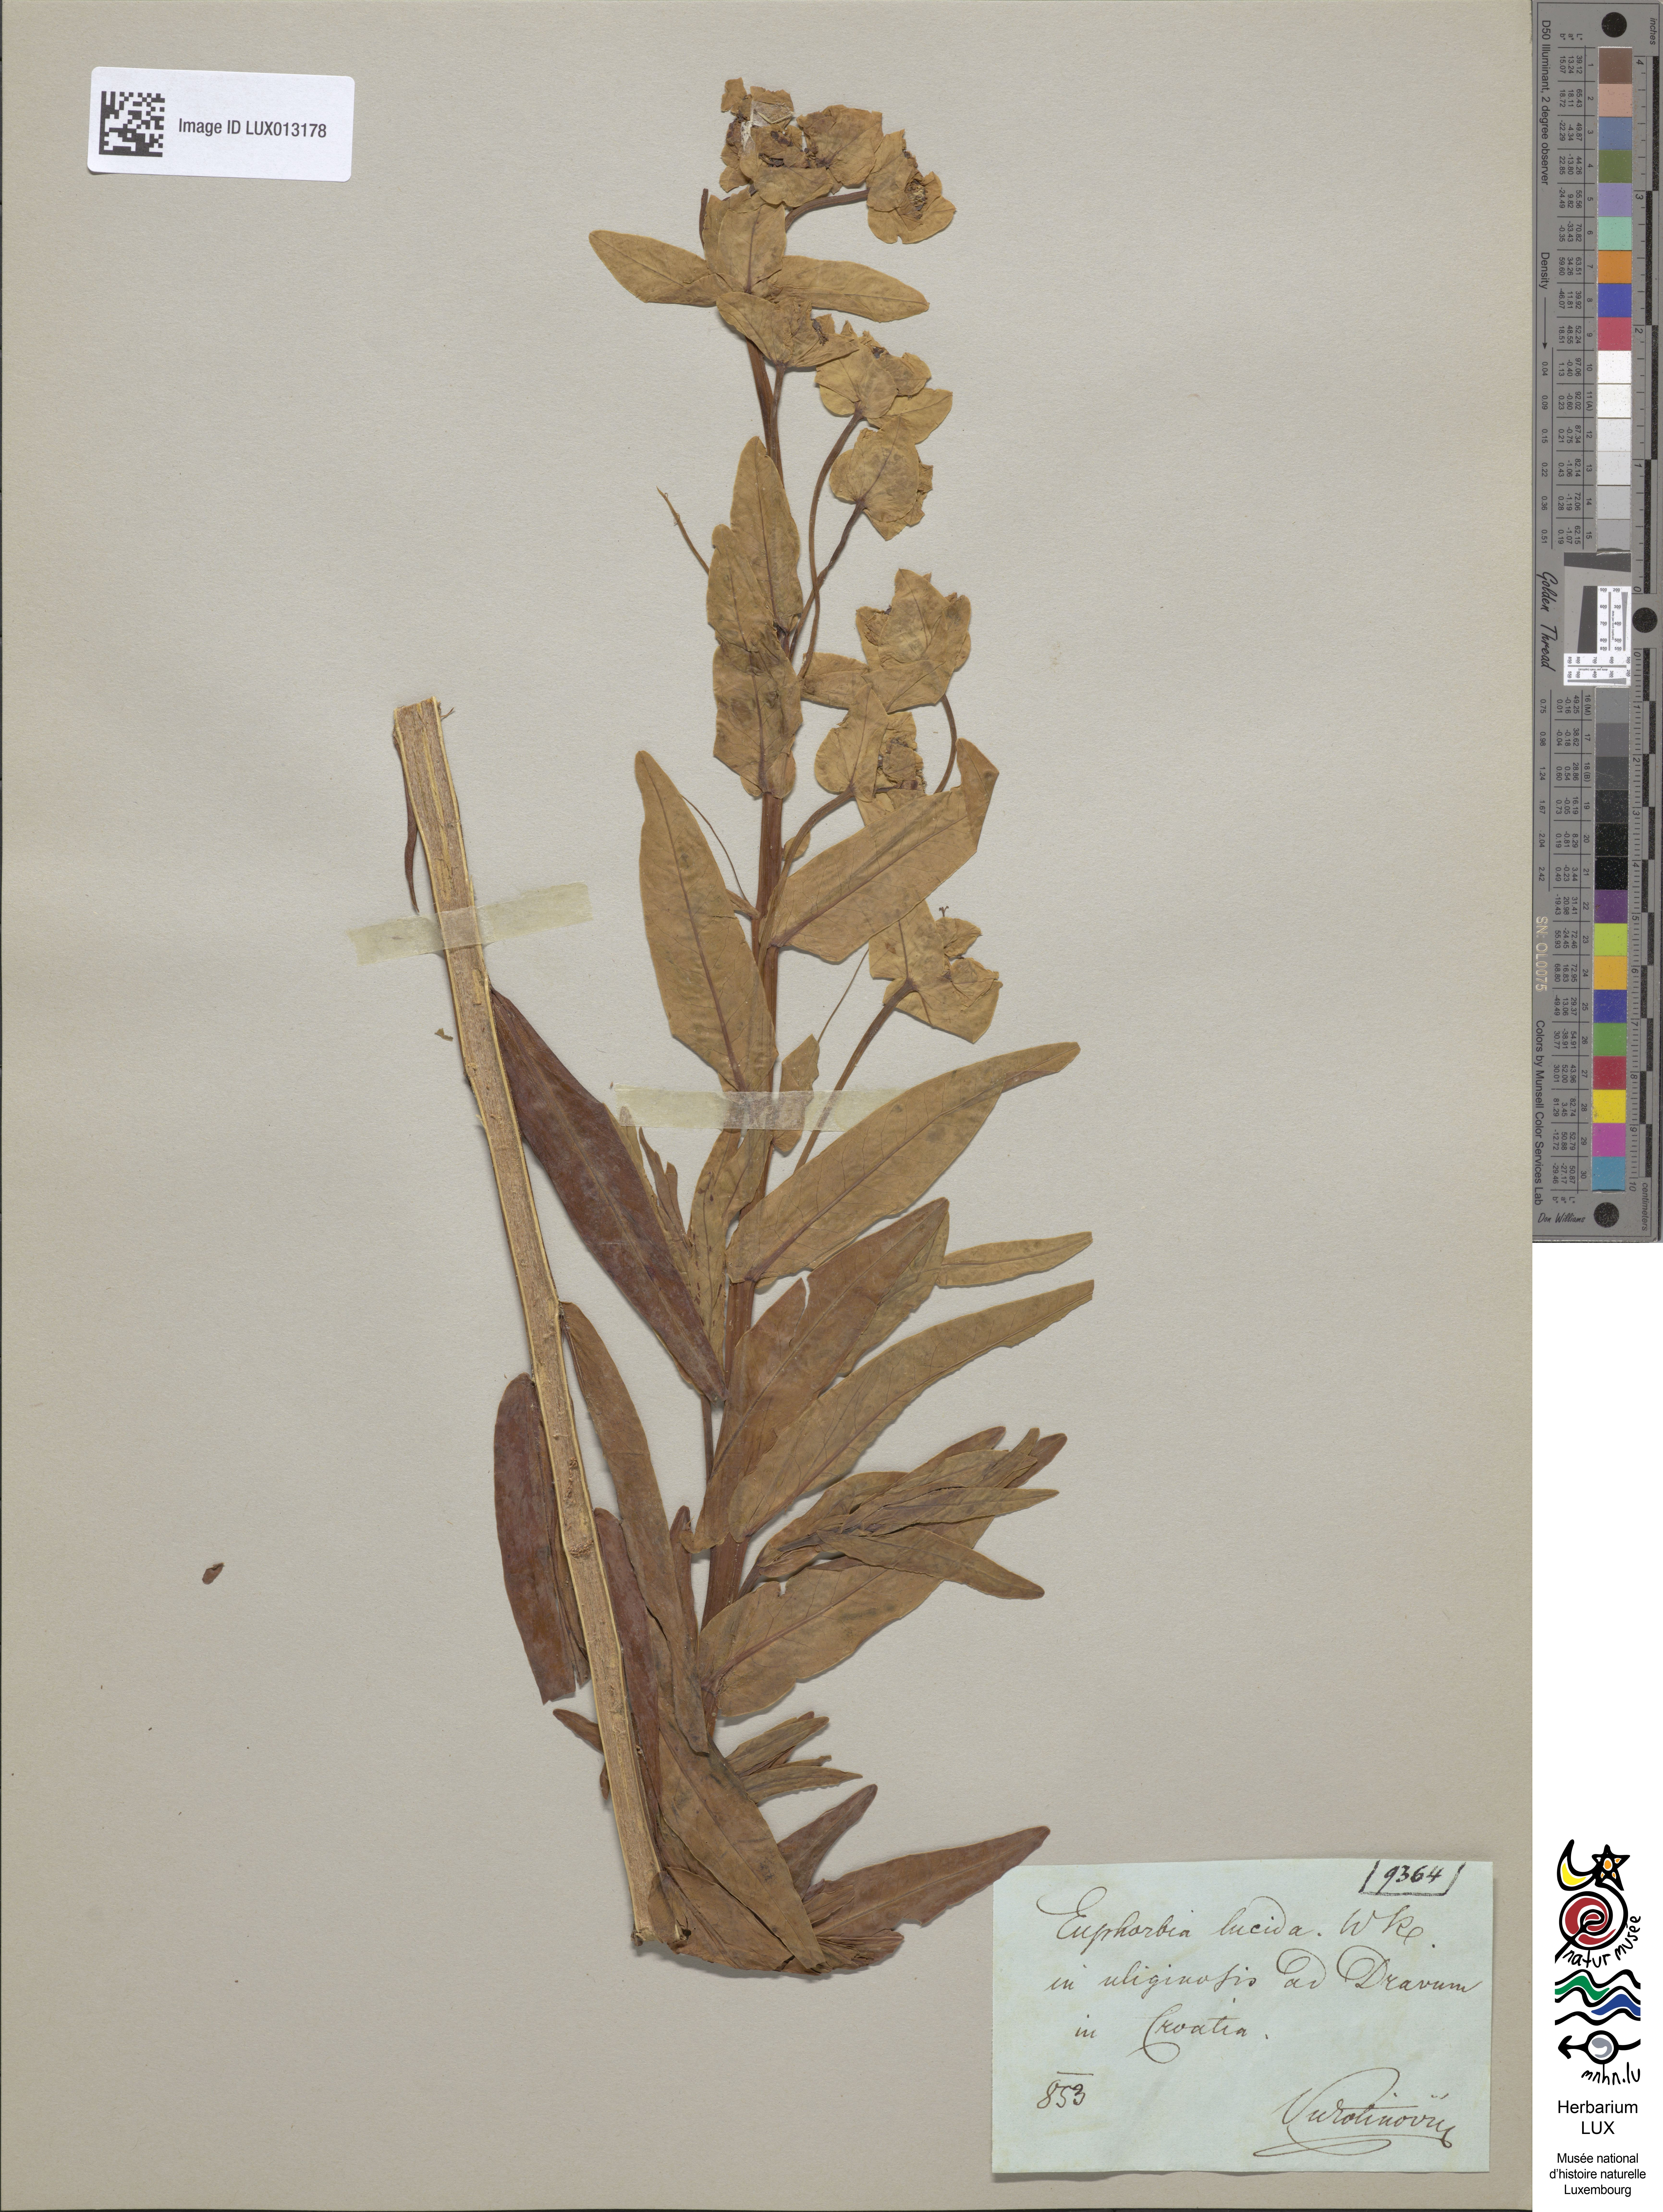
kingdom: Plantae
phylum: Tracheophyta
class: Magnoliopsida
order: Malpighiales
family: Euphorbiaceae
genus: Euphorbia
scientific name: Euphorbia lucida
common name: Shining spurge
